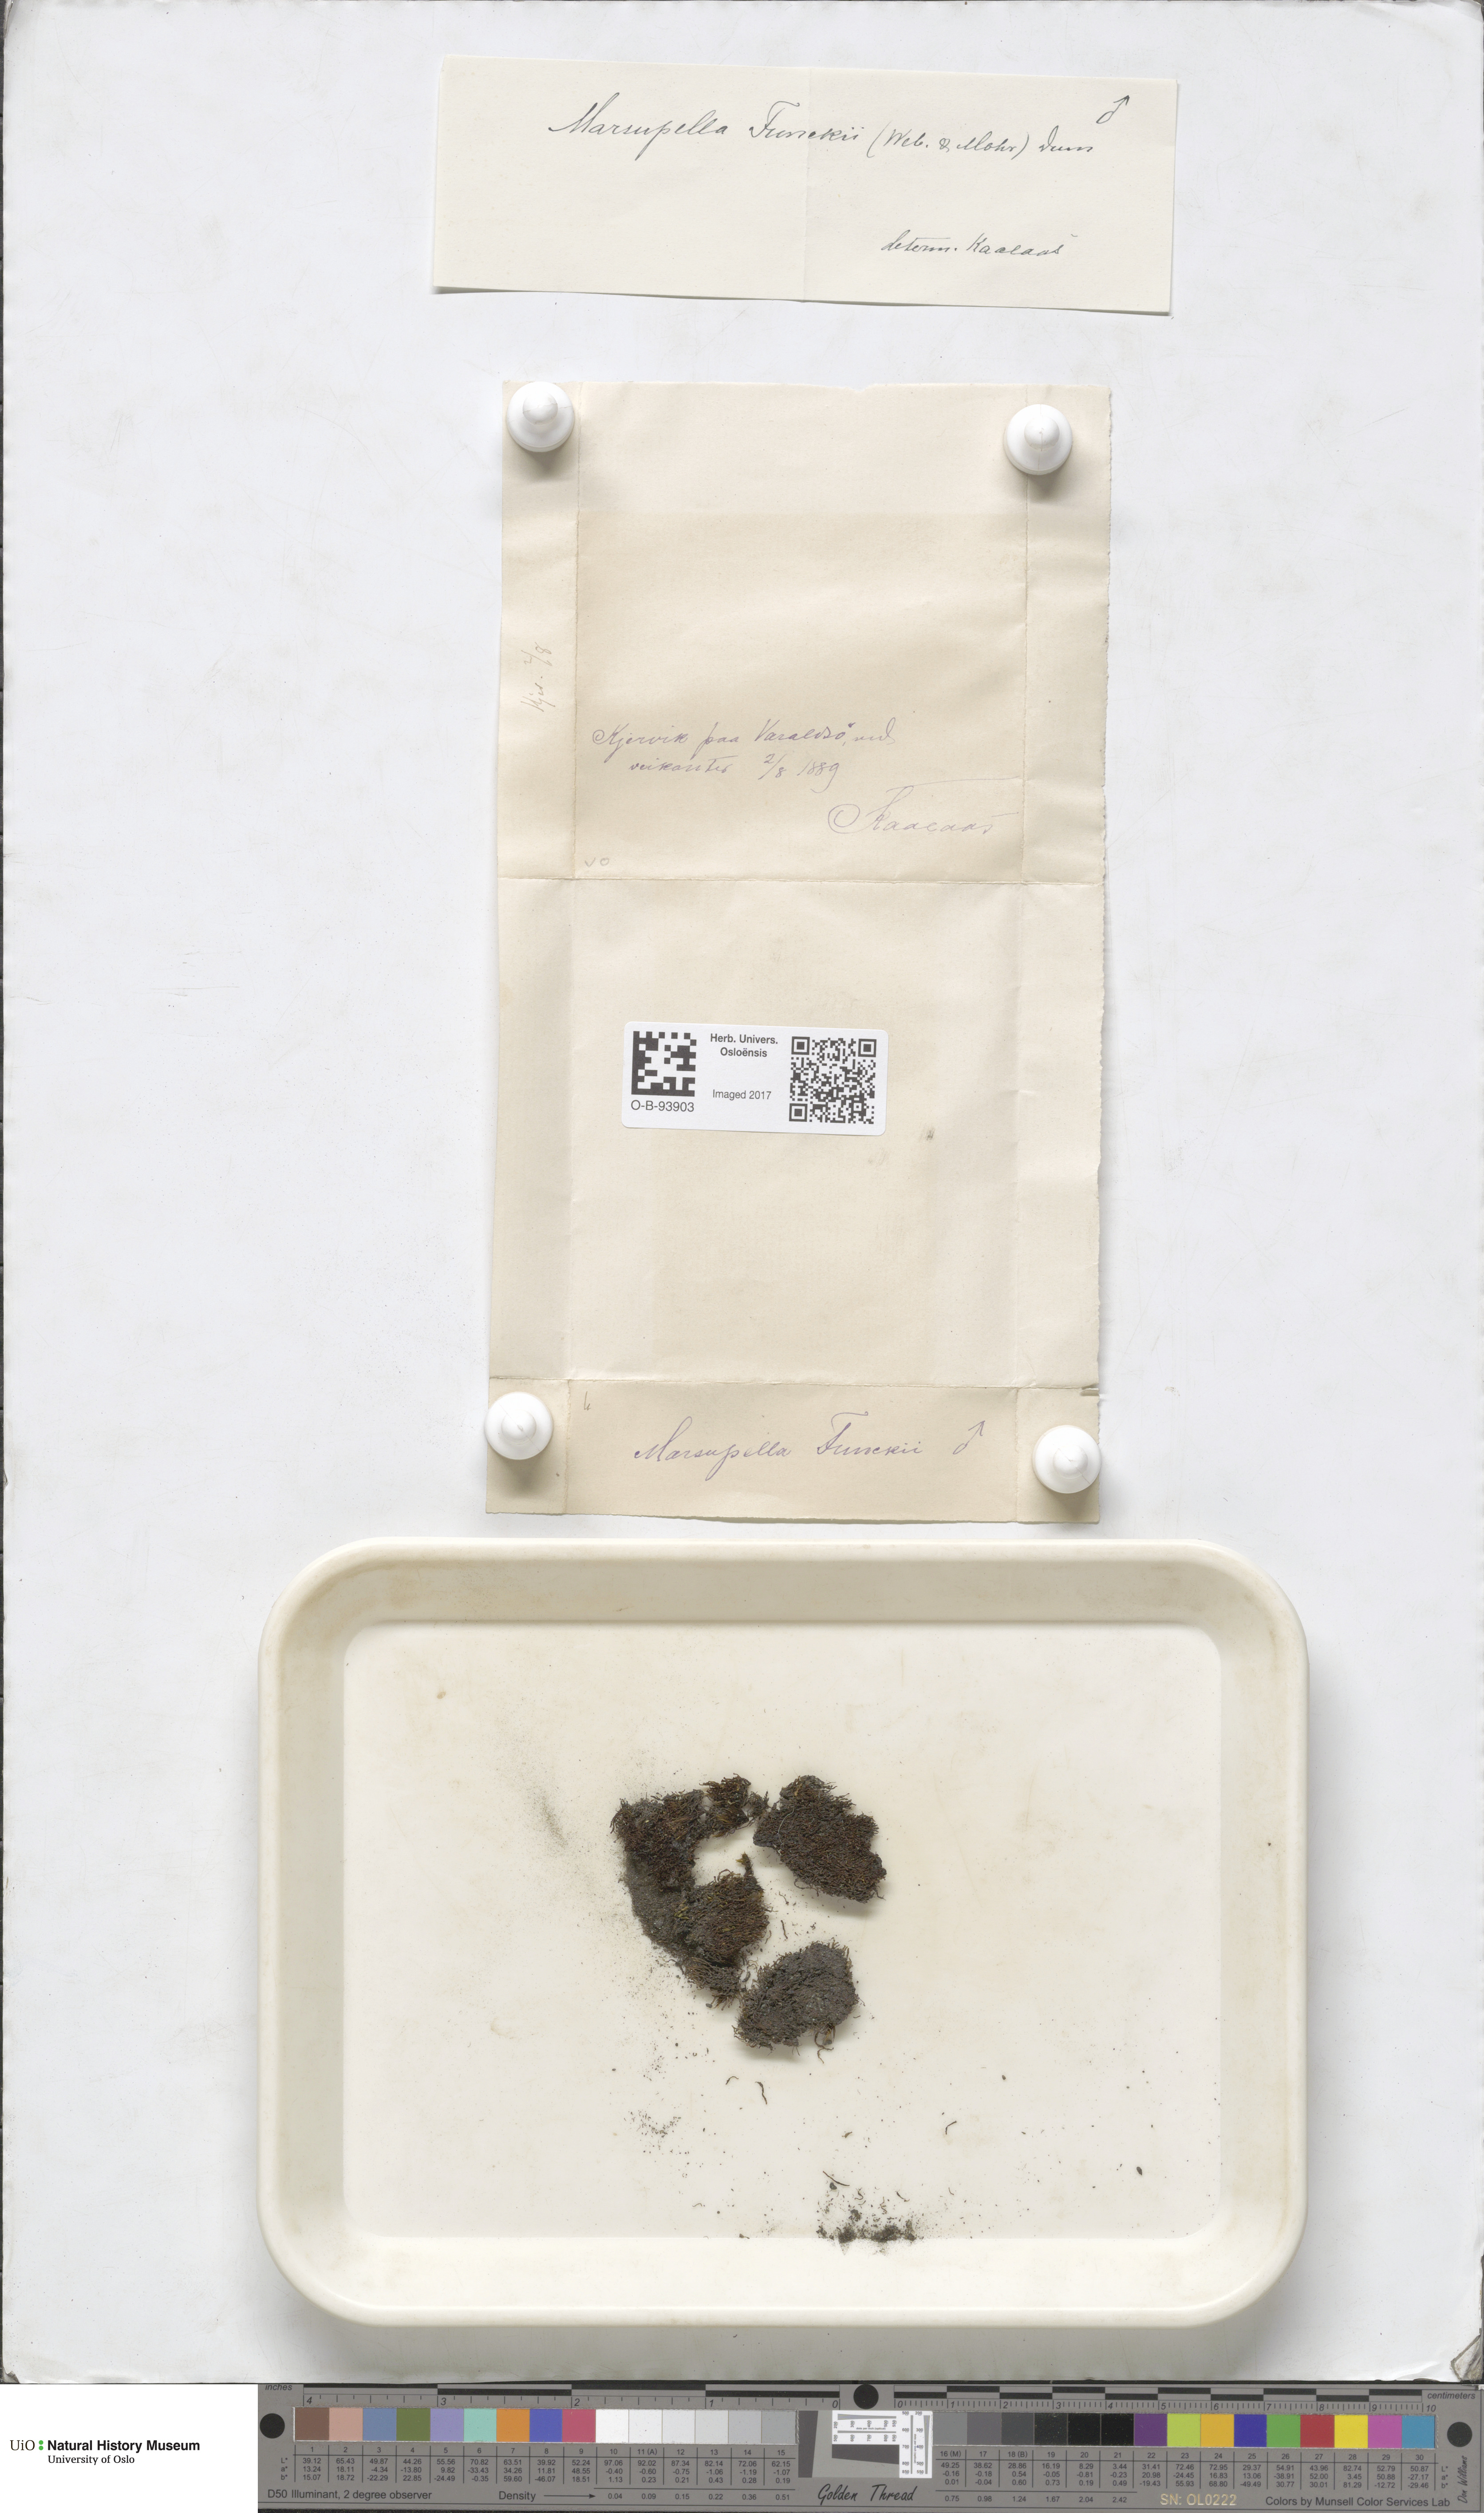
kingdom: Plantae
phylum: Marchantiophyta
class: Jungermanniopsida
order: Jungermanniales
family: Gymnomitriaceae
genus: Marsupella
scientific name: Marsupella funckii
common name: Funck's rustwort
